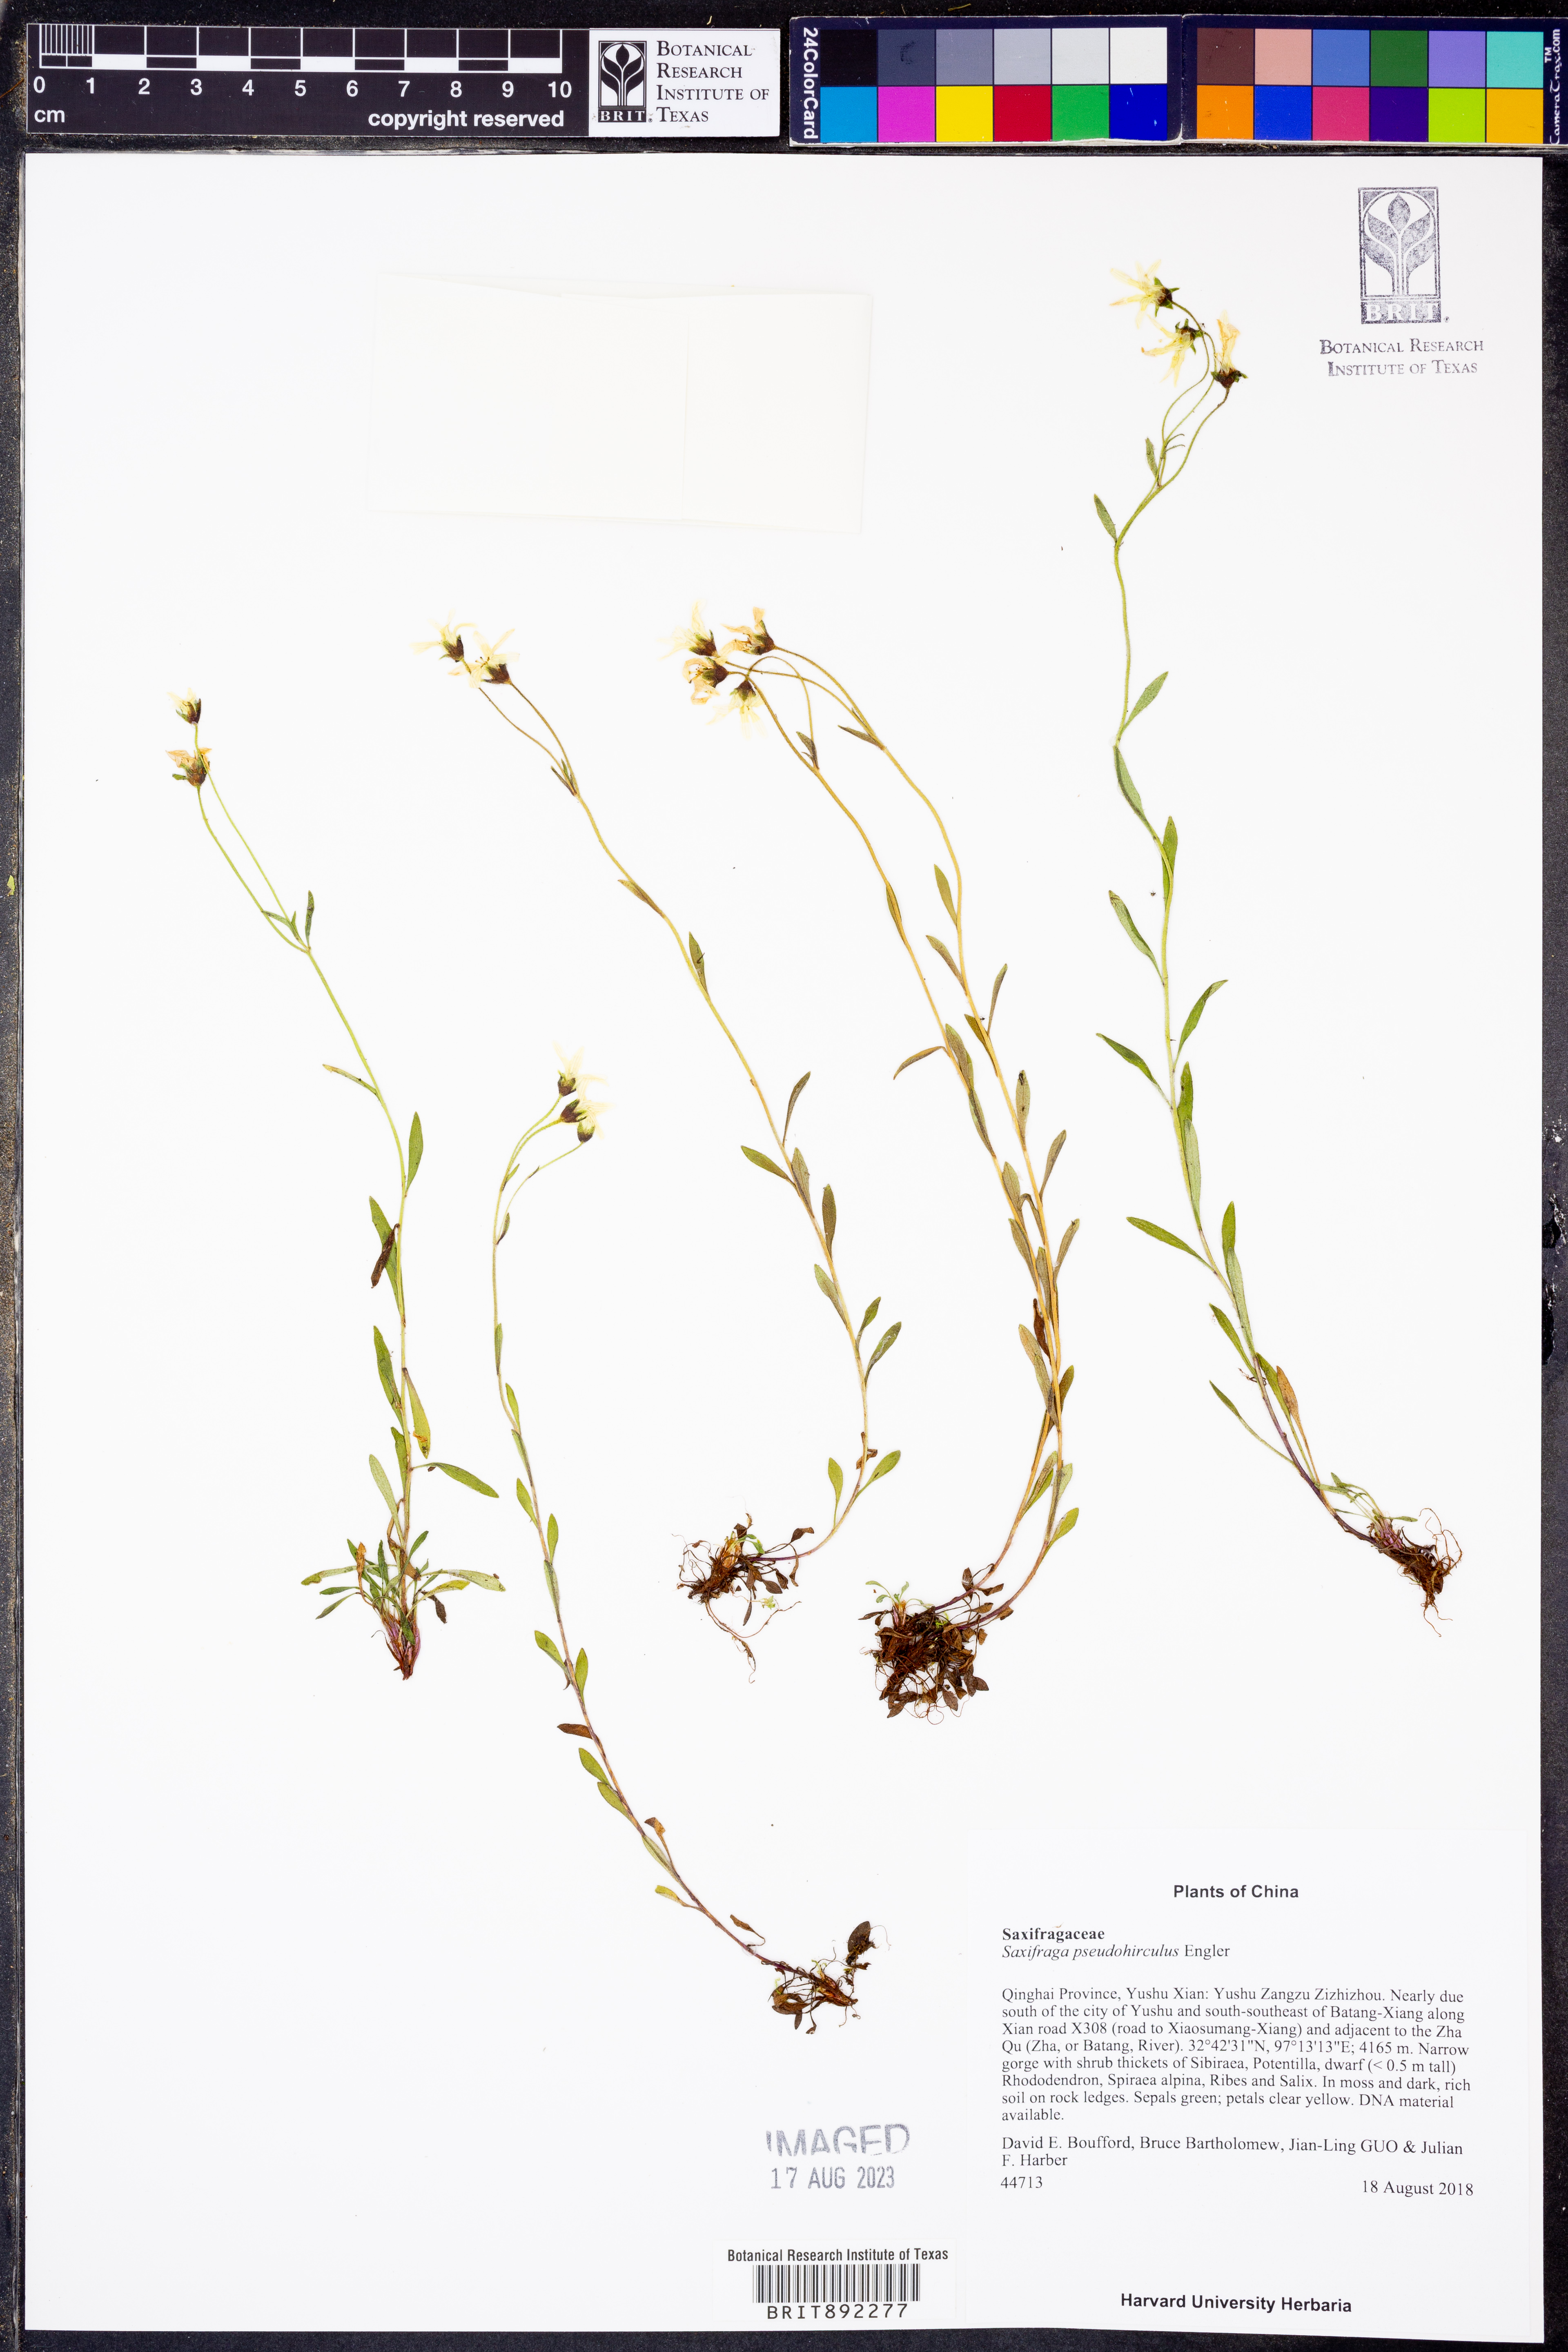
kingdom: Plantae
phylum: Tracheophyta
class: Magnoliopsida
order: Saxifragales
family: Saxifragaceae
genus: Saxifraga
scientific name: Saxifraga pseudohirculus
